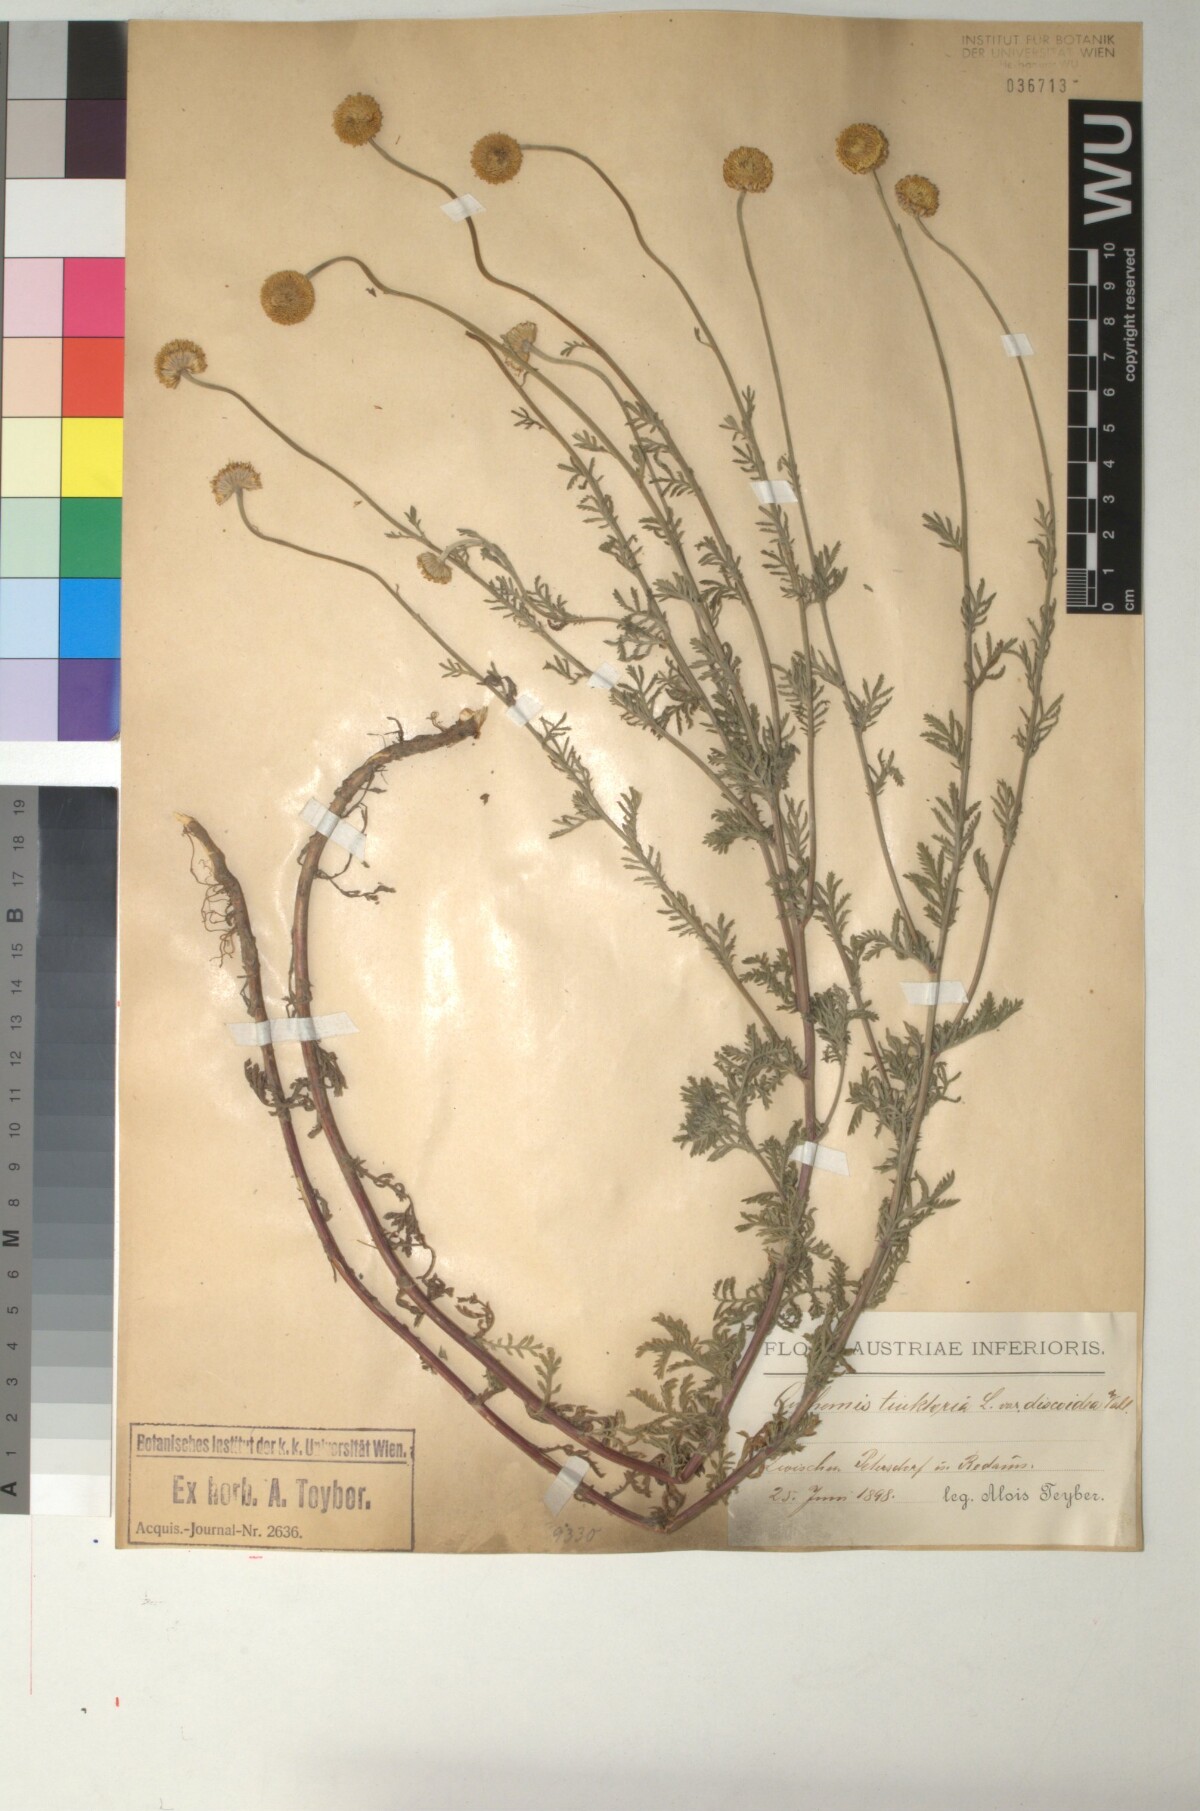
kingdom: Plantae
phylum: Tracheophyta
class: Magnoliopsida
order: Asterales
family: Asteraceae
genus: Cota
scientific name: Cota tinctoria
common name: Golden chamomile
